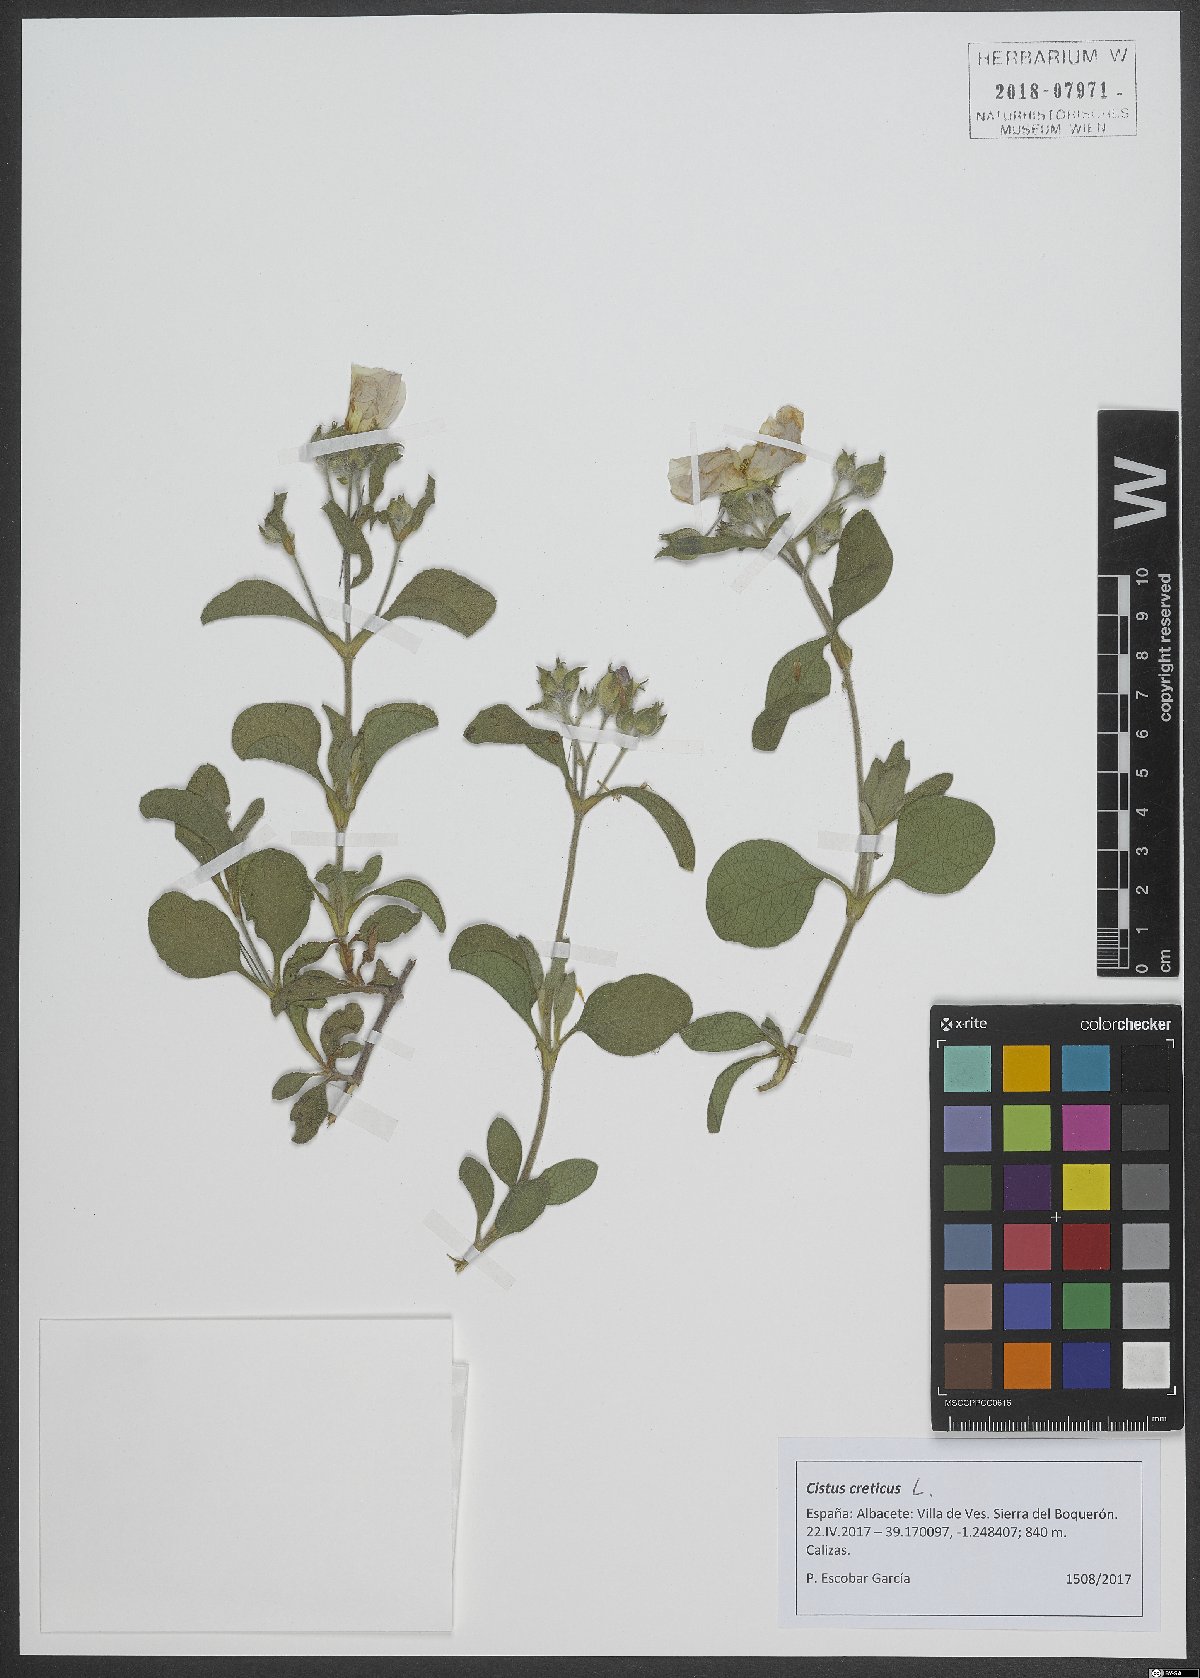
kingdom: Plantae
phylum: Tracheophyta
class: Magnoliopsida
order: Malvales
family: Cistaceae
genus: Cistus
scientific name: Cistus creticus
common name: Cretan rockrose
